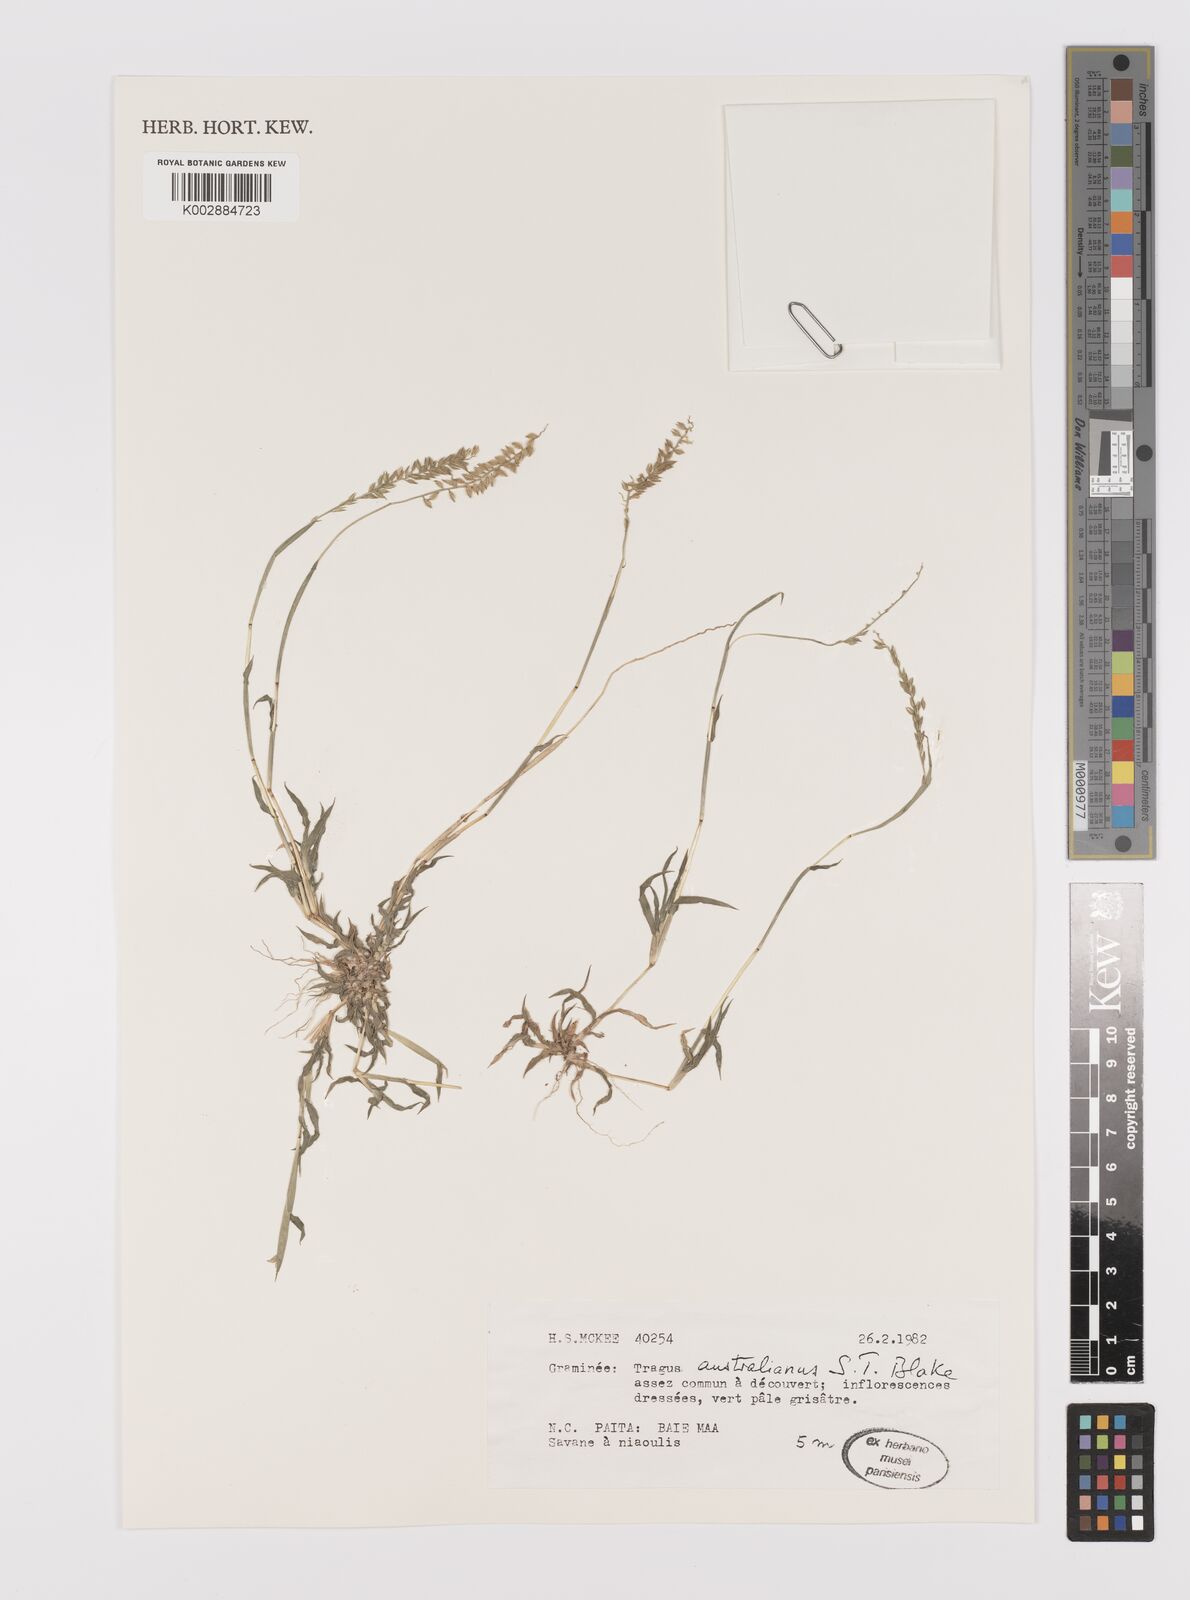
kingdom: Plantae
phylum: Tracheophyta
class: Liliopsida
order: Poales
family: Poaceae
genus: Tragus
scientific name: Tragus australianus
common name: Australian bur-grass
